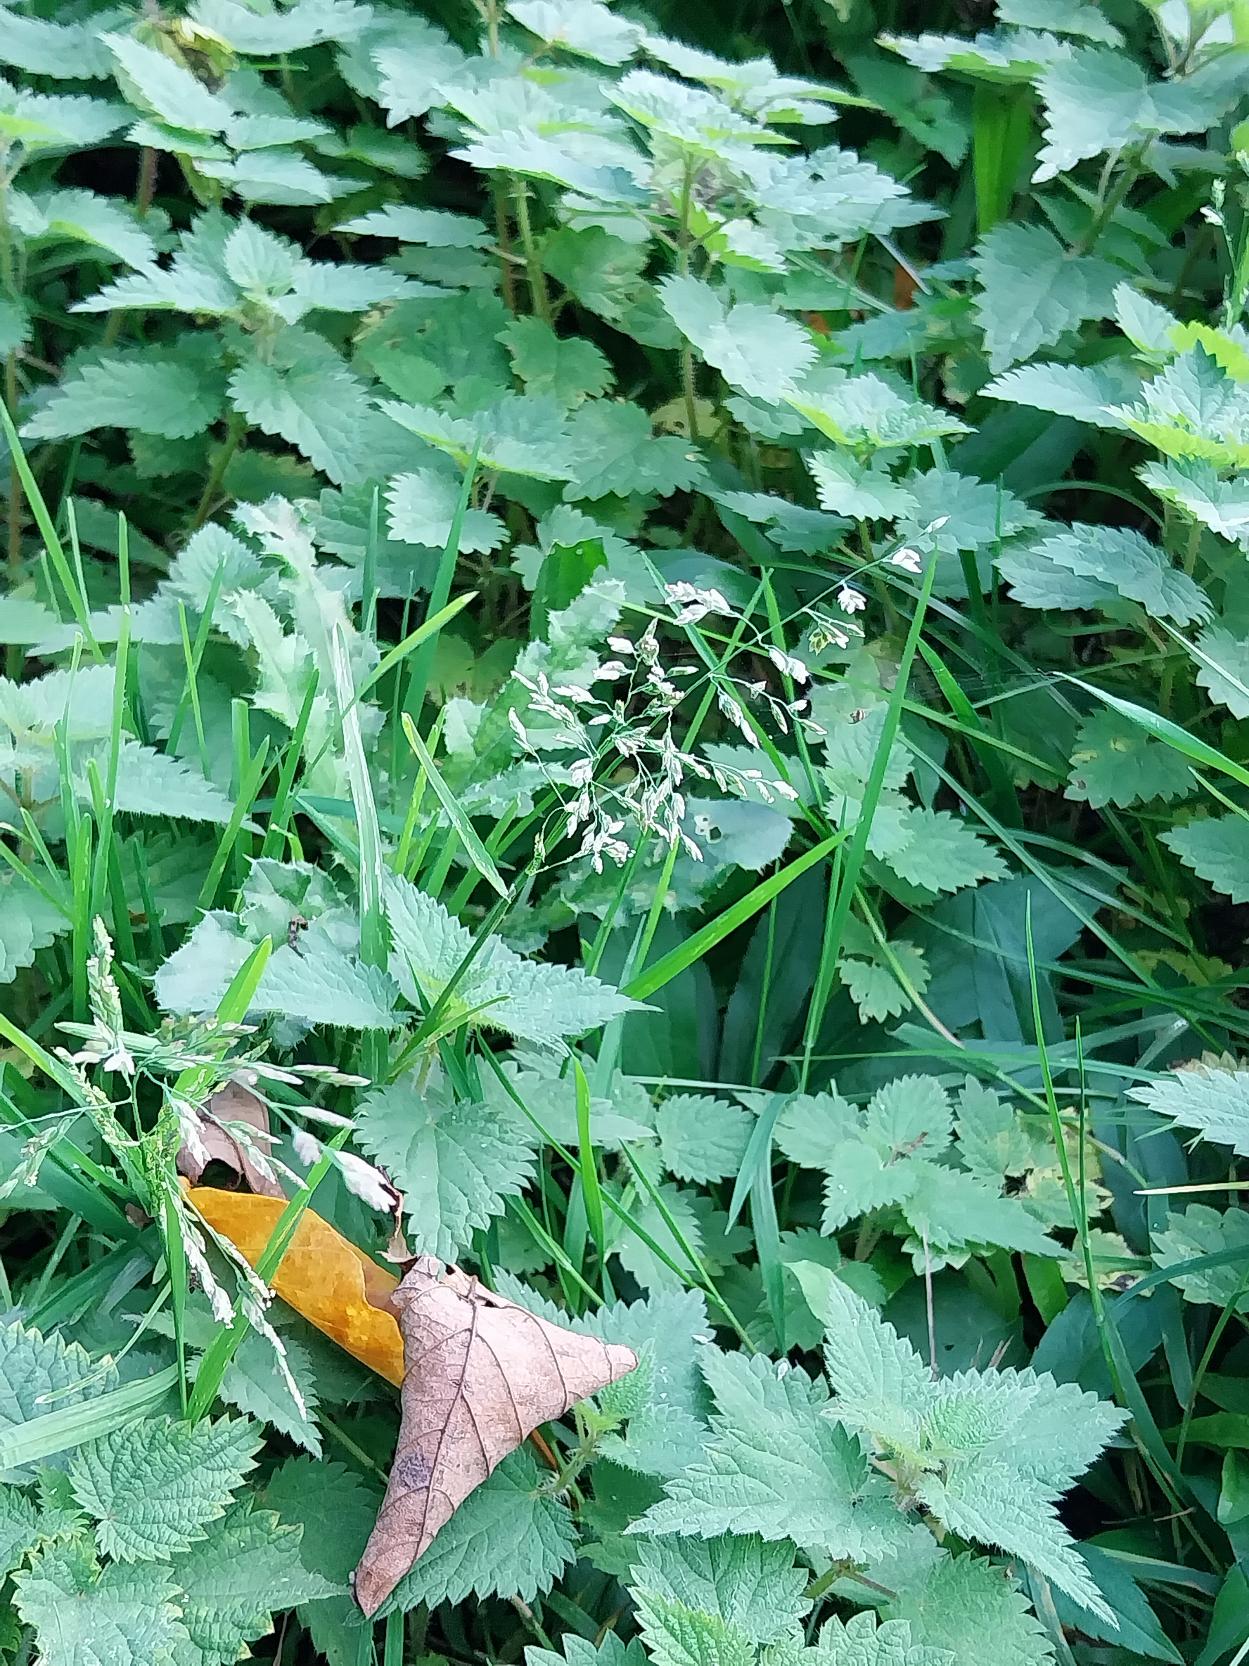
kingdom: Plantae
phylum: Tracheophyta
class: Liliopsida
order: Poales
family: Poaceae
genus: Poa
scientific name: Poa annua
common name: Enårig rapgræs
